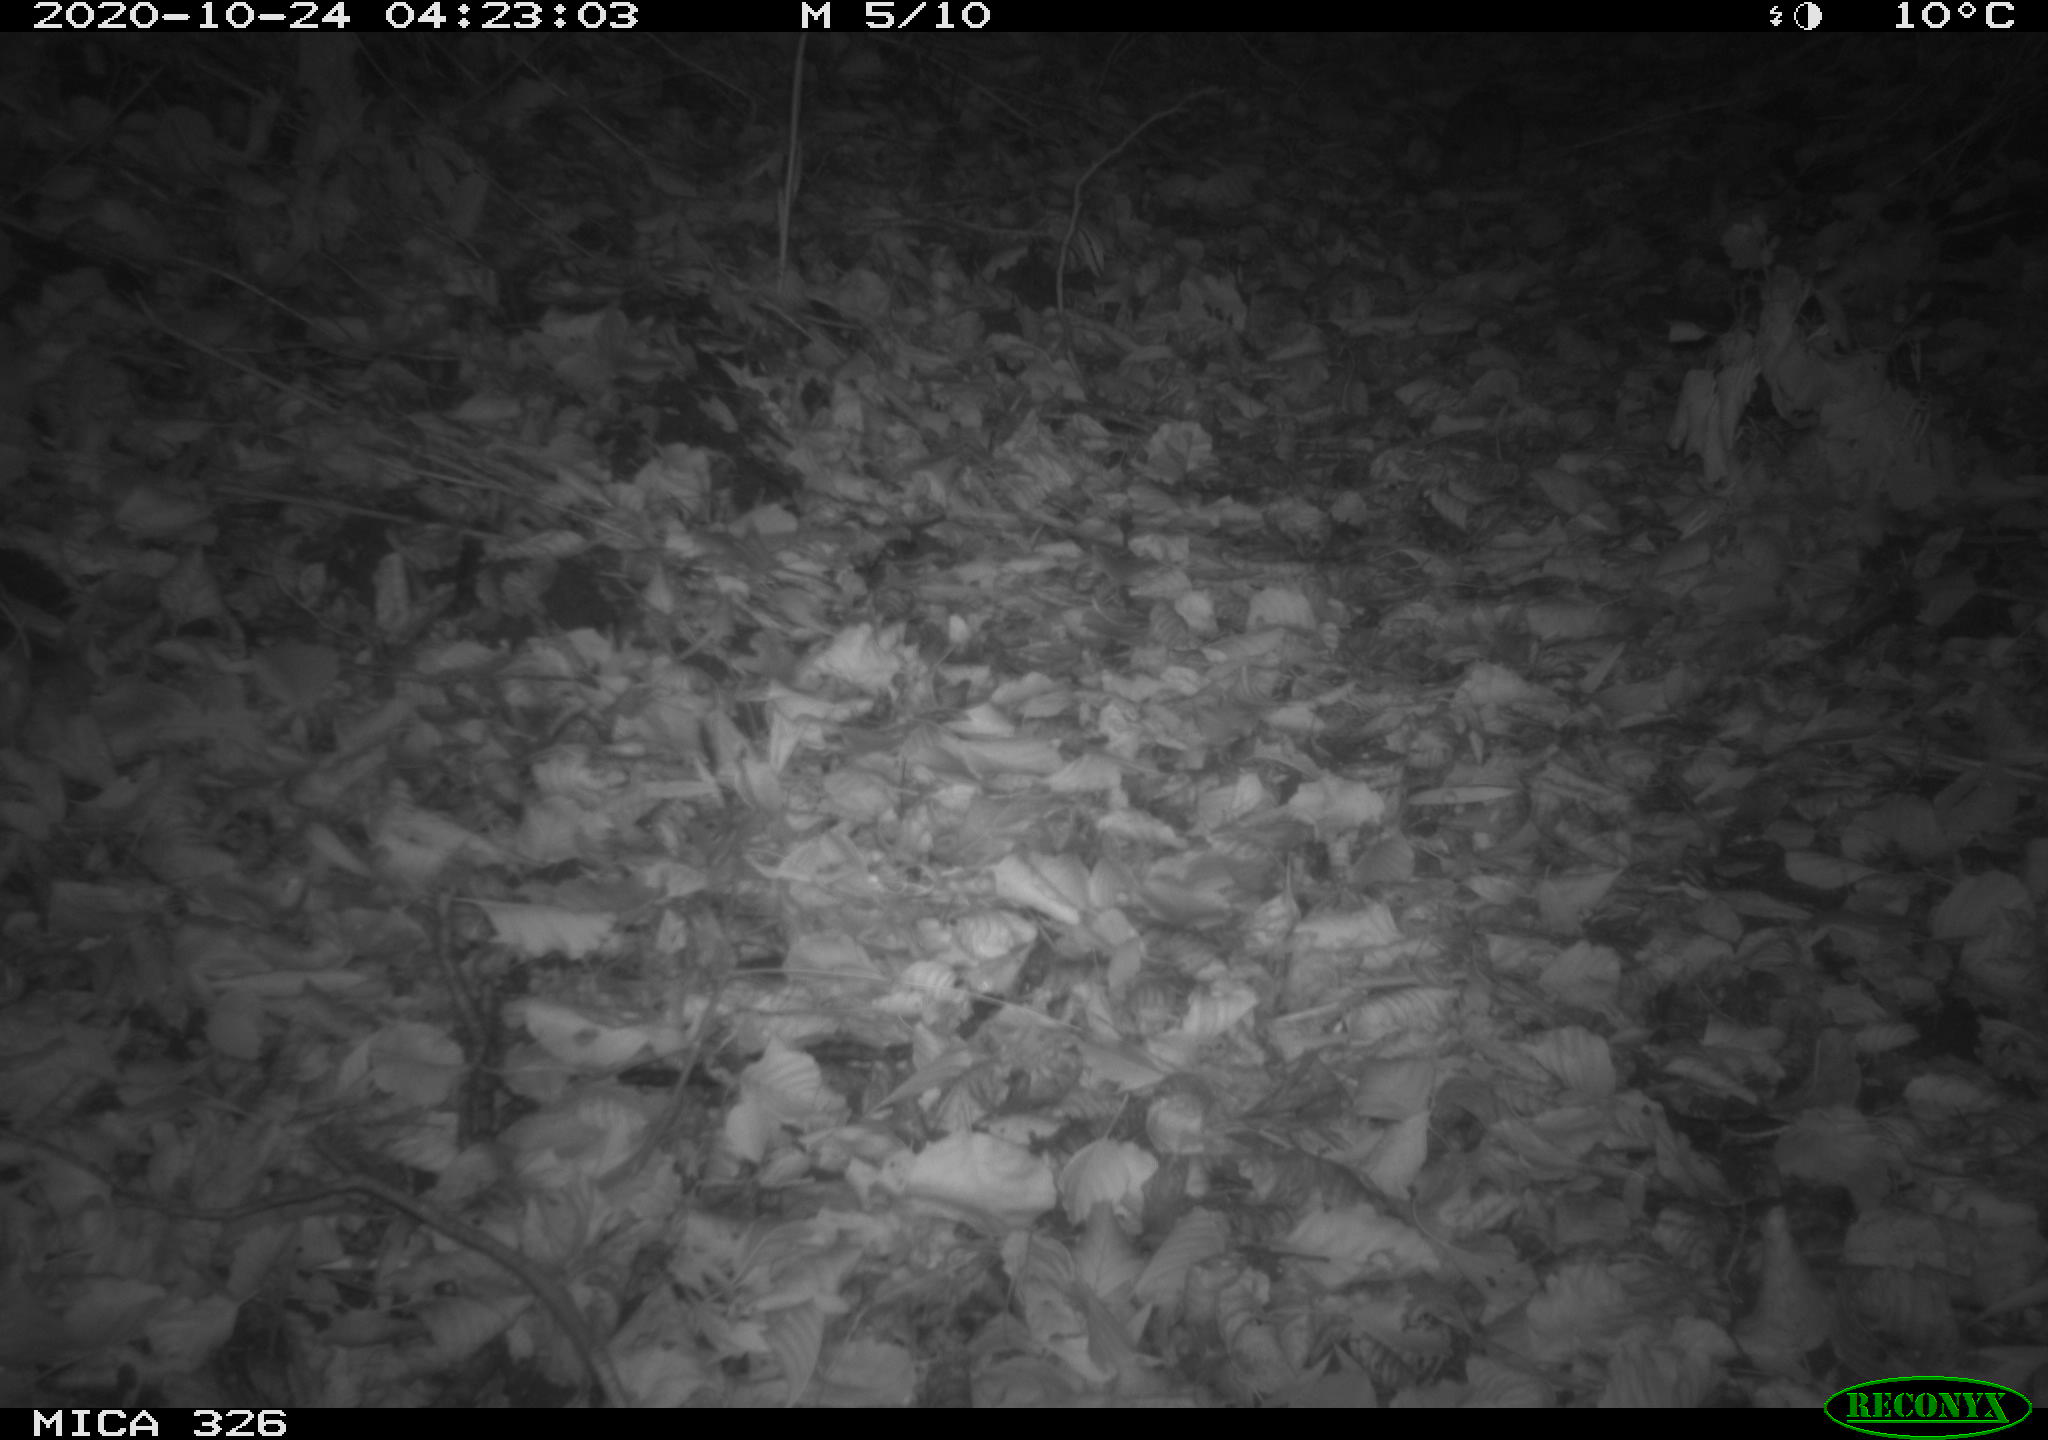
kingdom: Animalia
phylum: Chordata
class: Mammalia
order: Rodentia
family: Muridae
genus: Rattus
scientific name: Rattus norvegicus
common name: Brown rat
